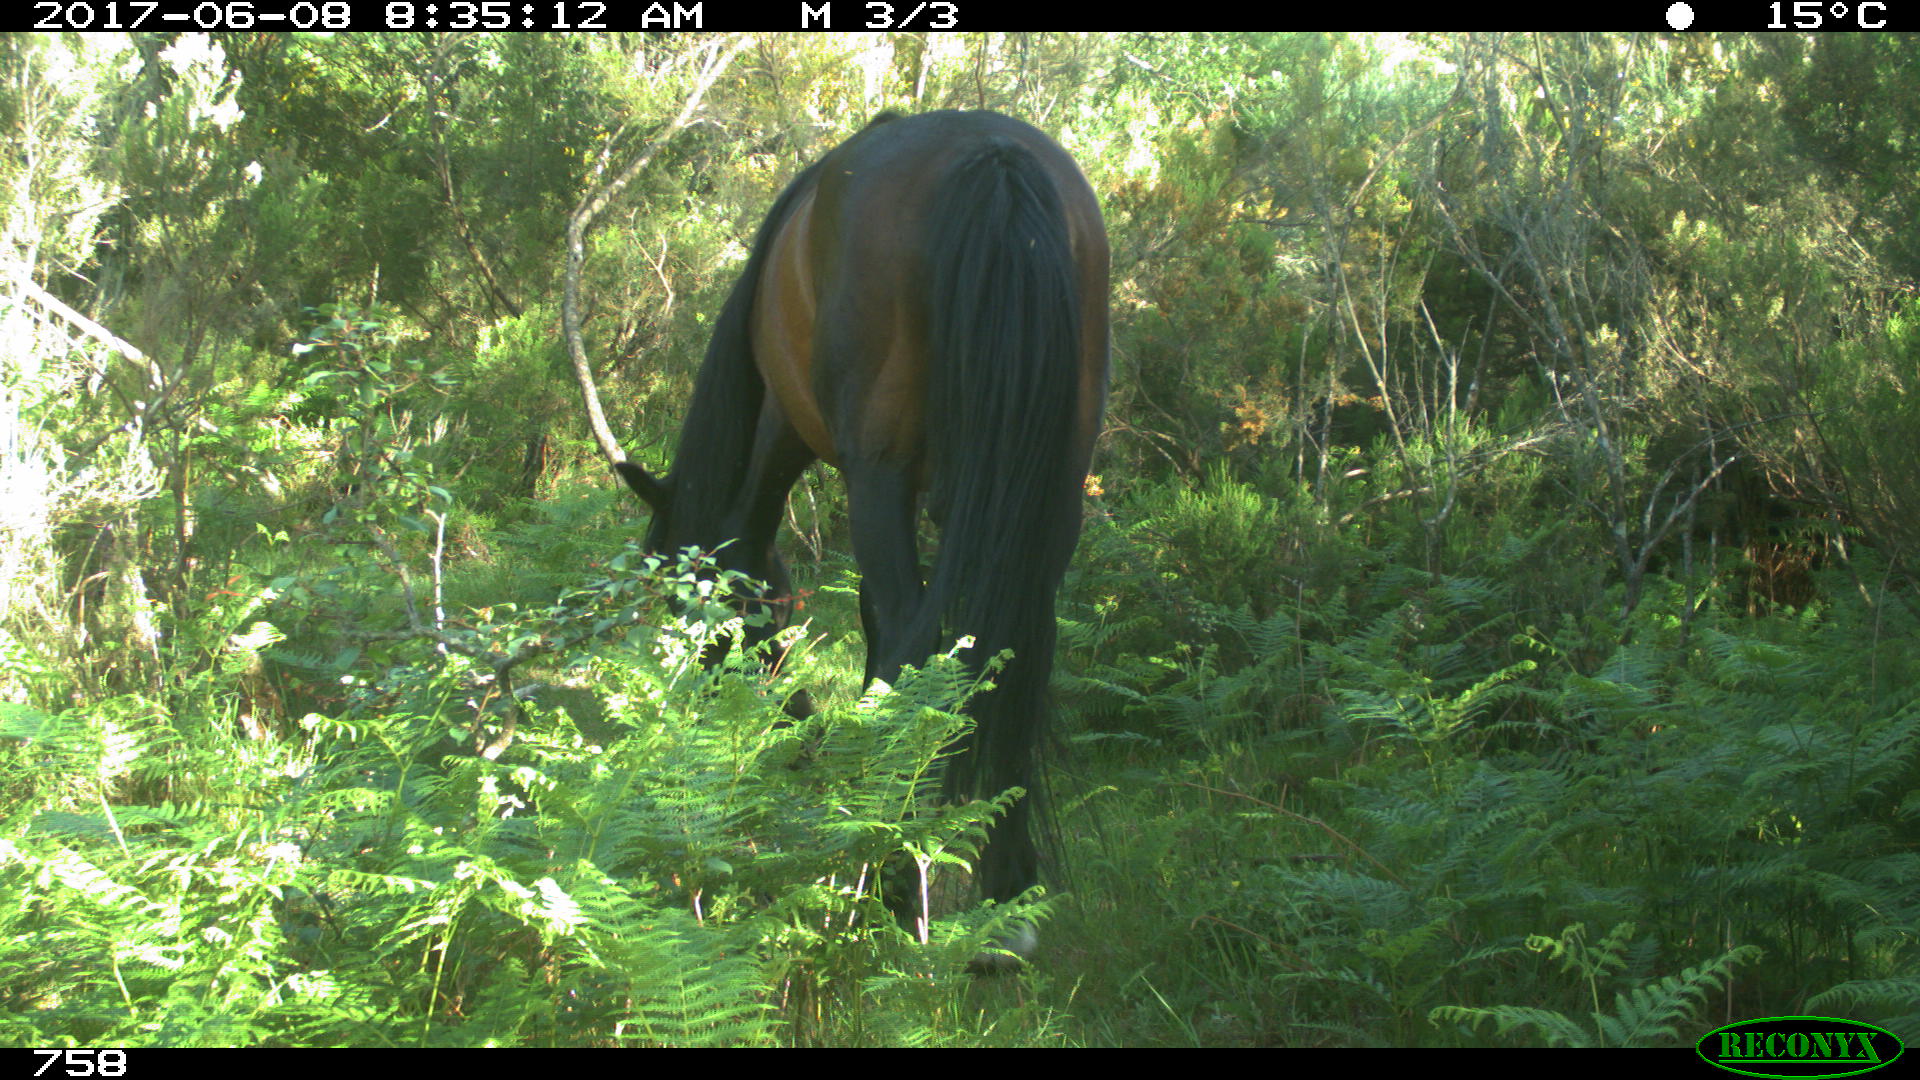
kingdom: Animalia
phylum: Chordata
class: Mammalia
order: Perissodactyla
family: Equidae
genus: Equus
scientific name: Equus caballus
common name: Horse
